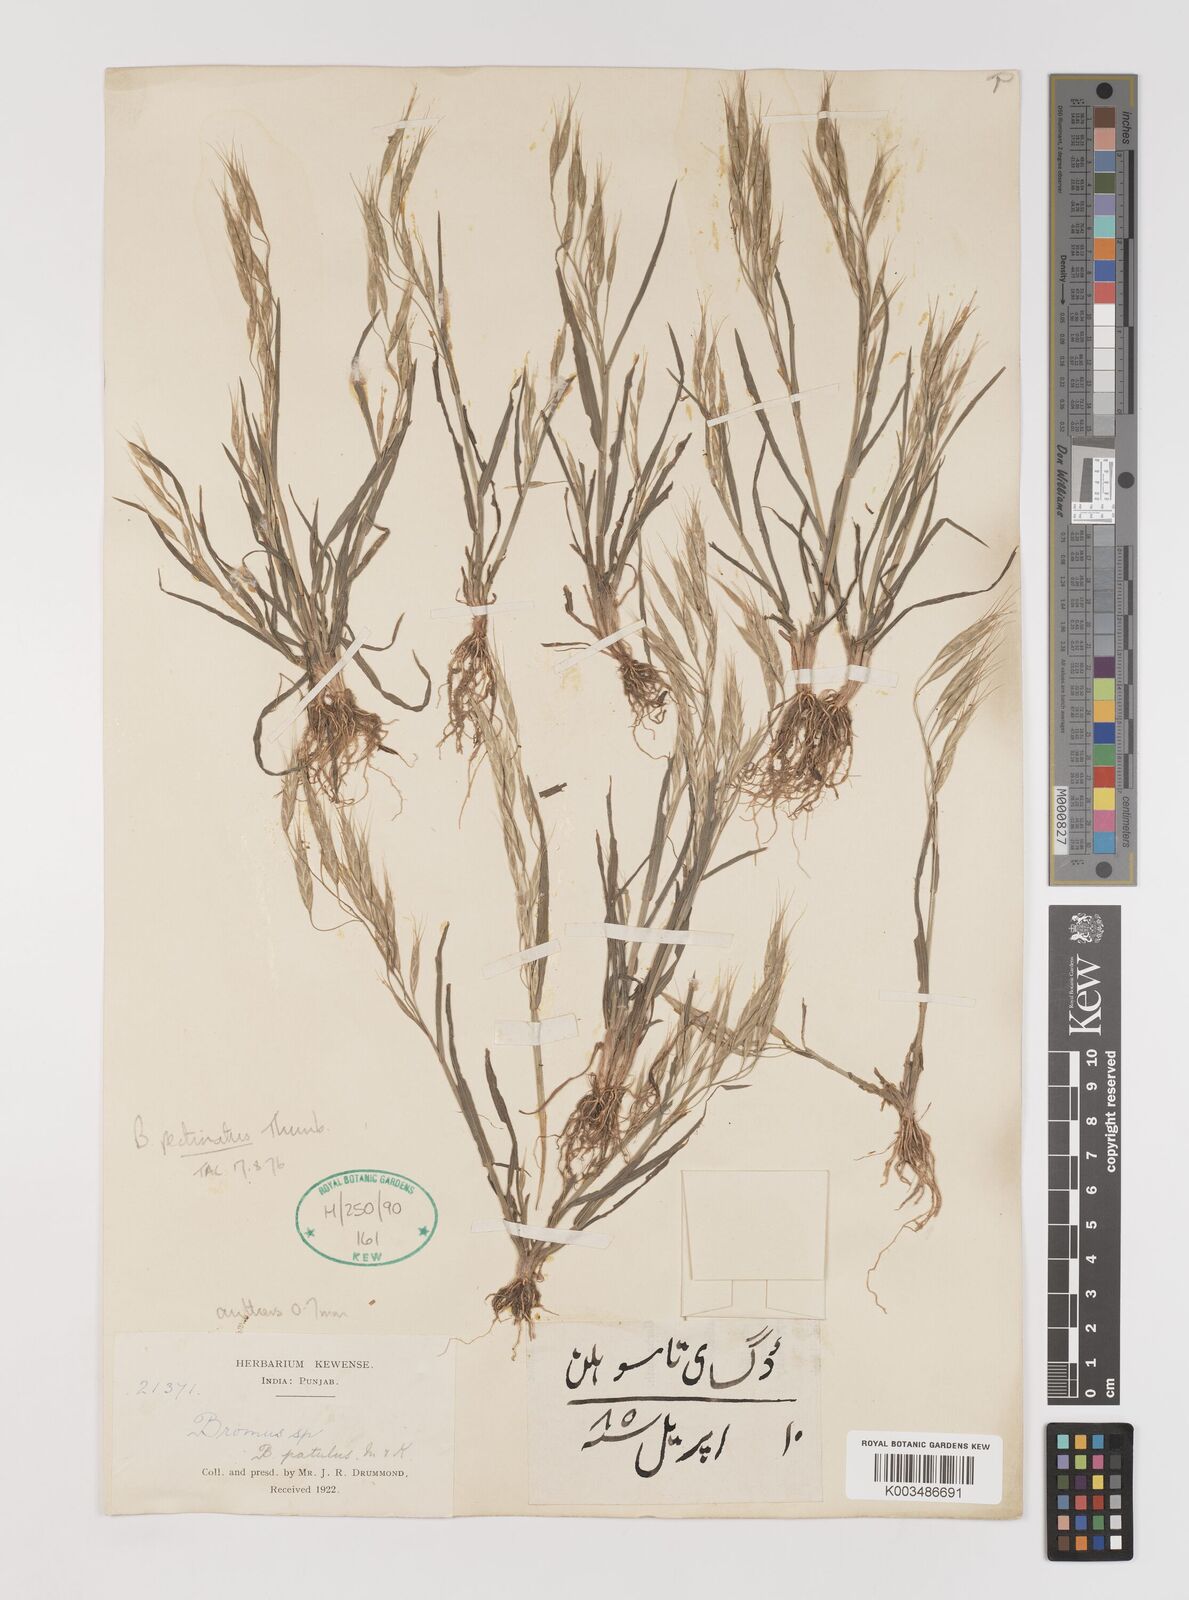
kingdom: Plantae
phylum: Tracheophyta
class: Liliopsida
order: Poales
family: Poaceae
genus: Bromus
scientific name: Bromus pectinatus
